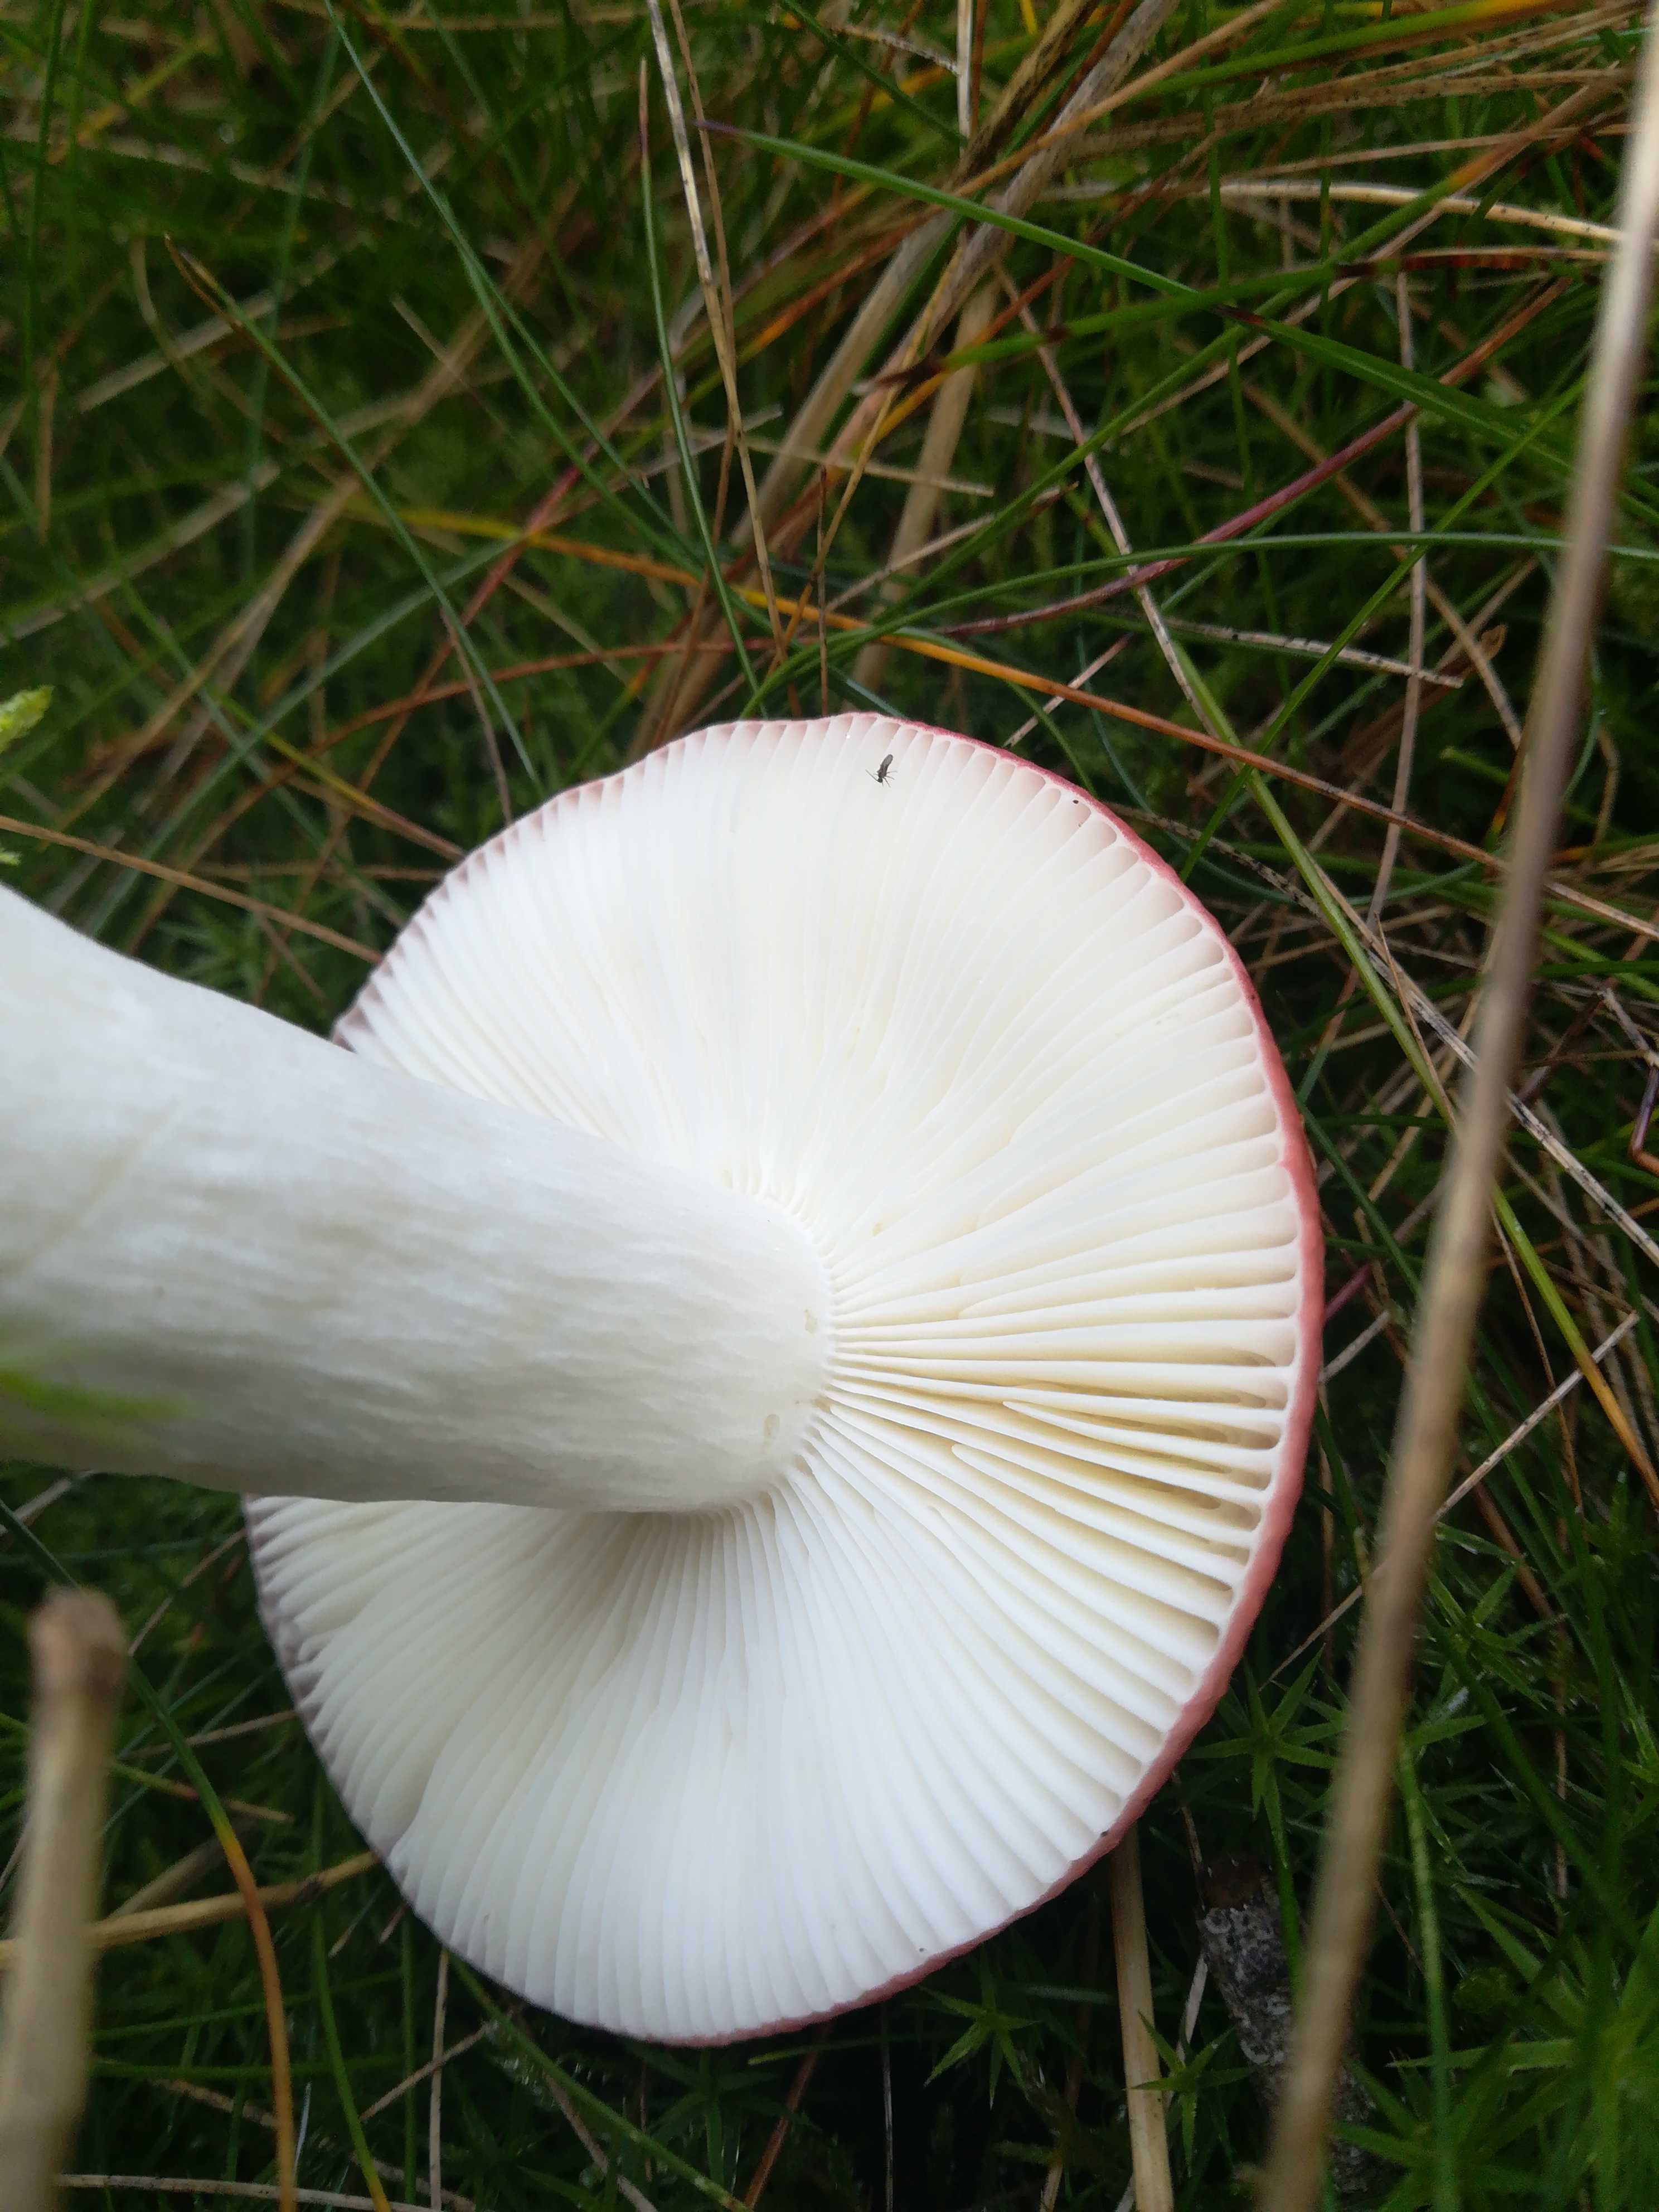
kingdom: Fungi
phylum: Basidiomycota
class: Agaricomycetes
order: Russulales
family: Russulaceae
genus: Russula
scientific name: Russula
